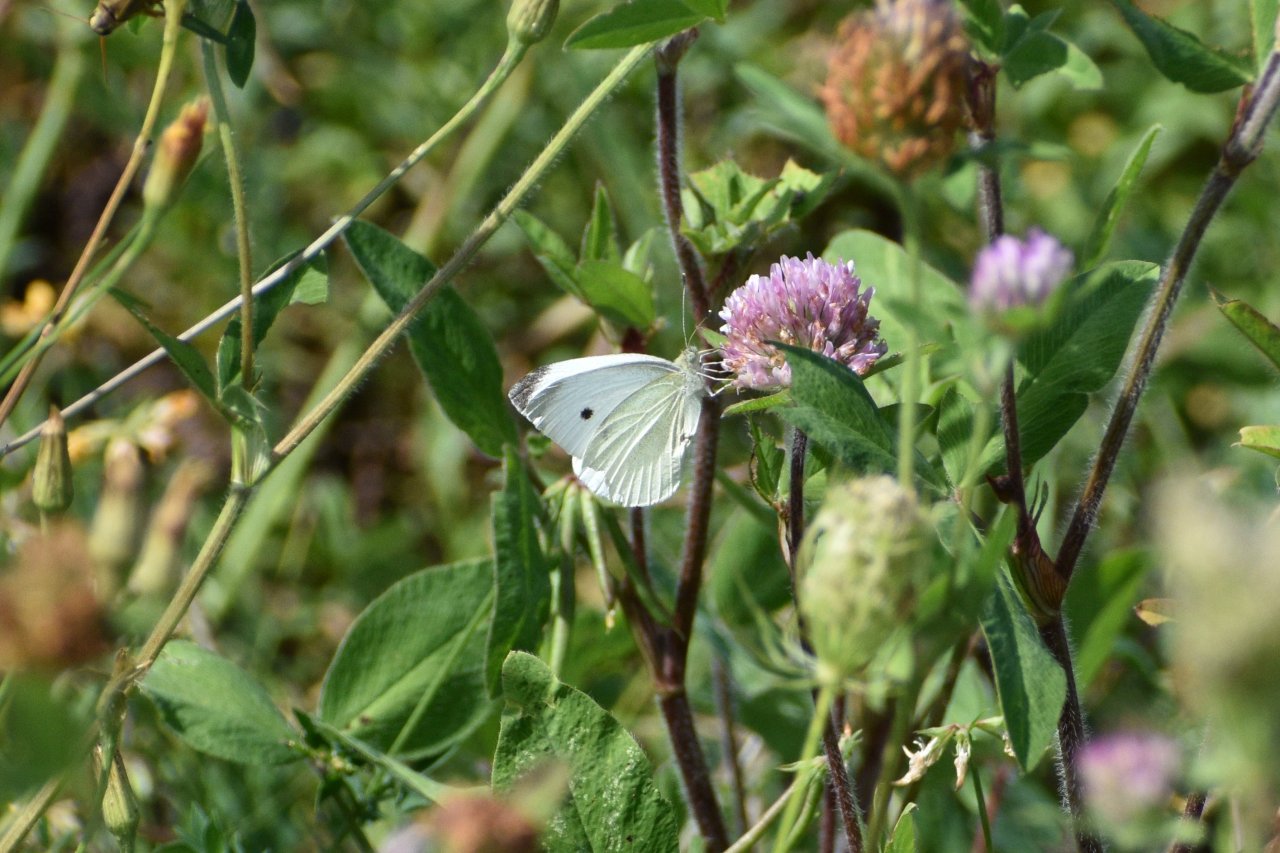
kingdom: Animalia
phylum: Arthropoda
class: Insecta
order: Lepidoptera
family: Pieridae
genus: Pieris
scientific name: Pieris rapae
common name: Cabbage White
